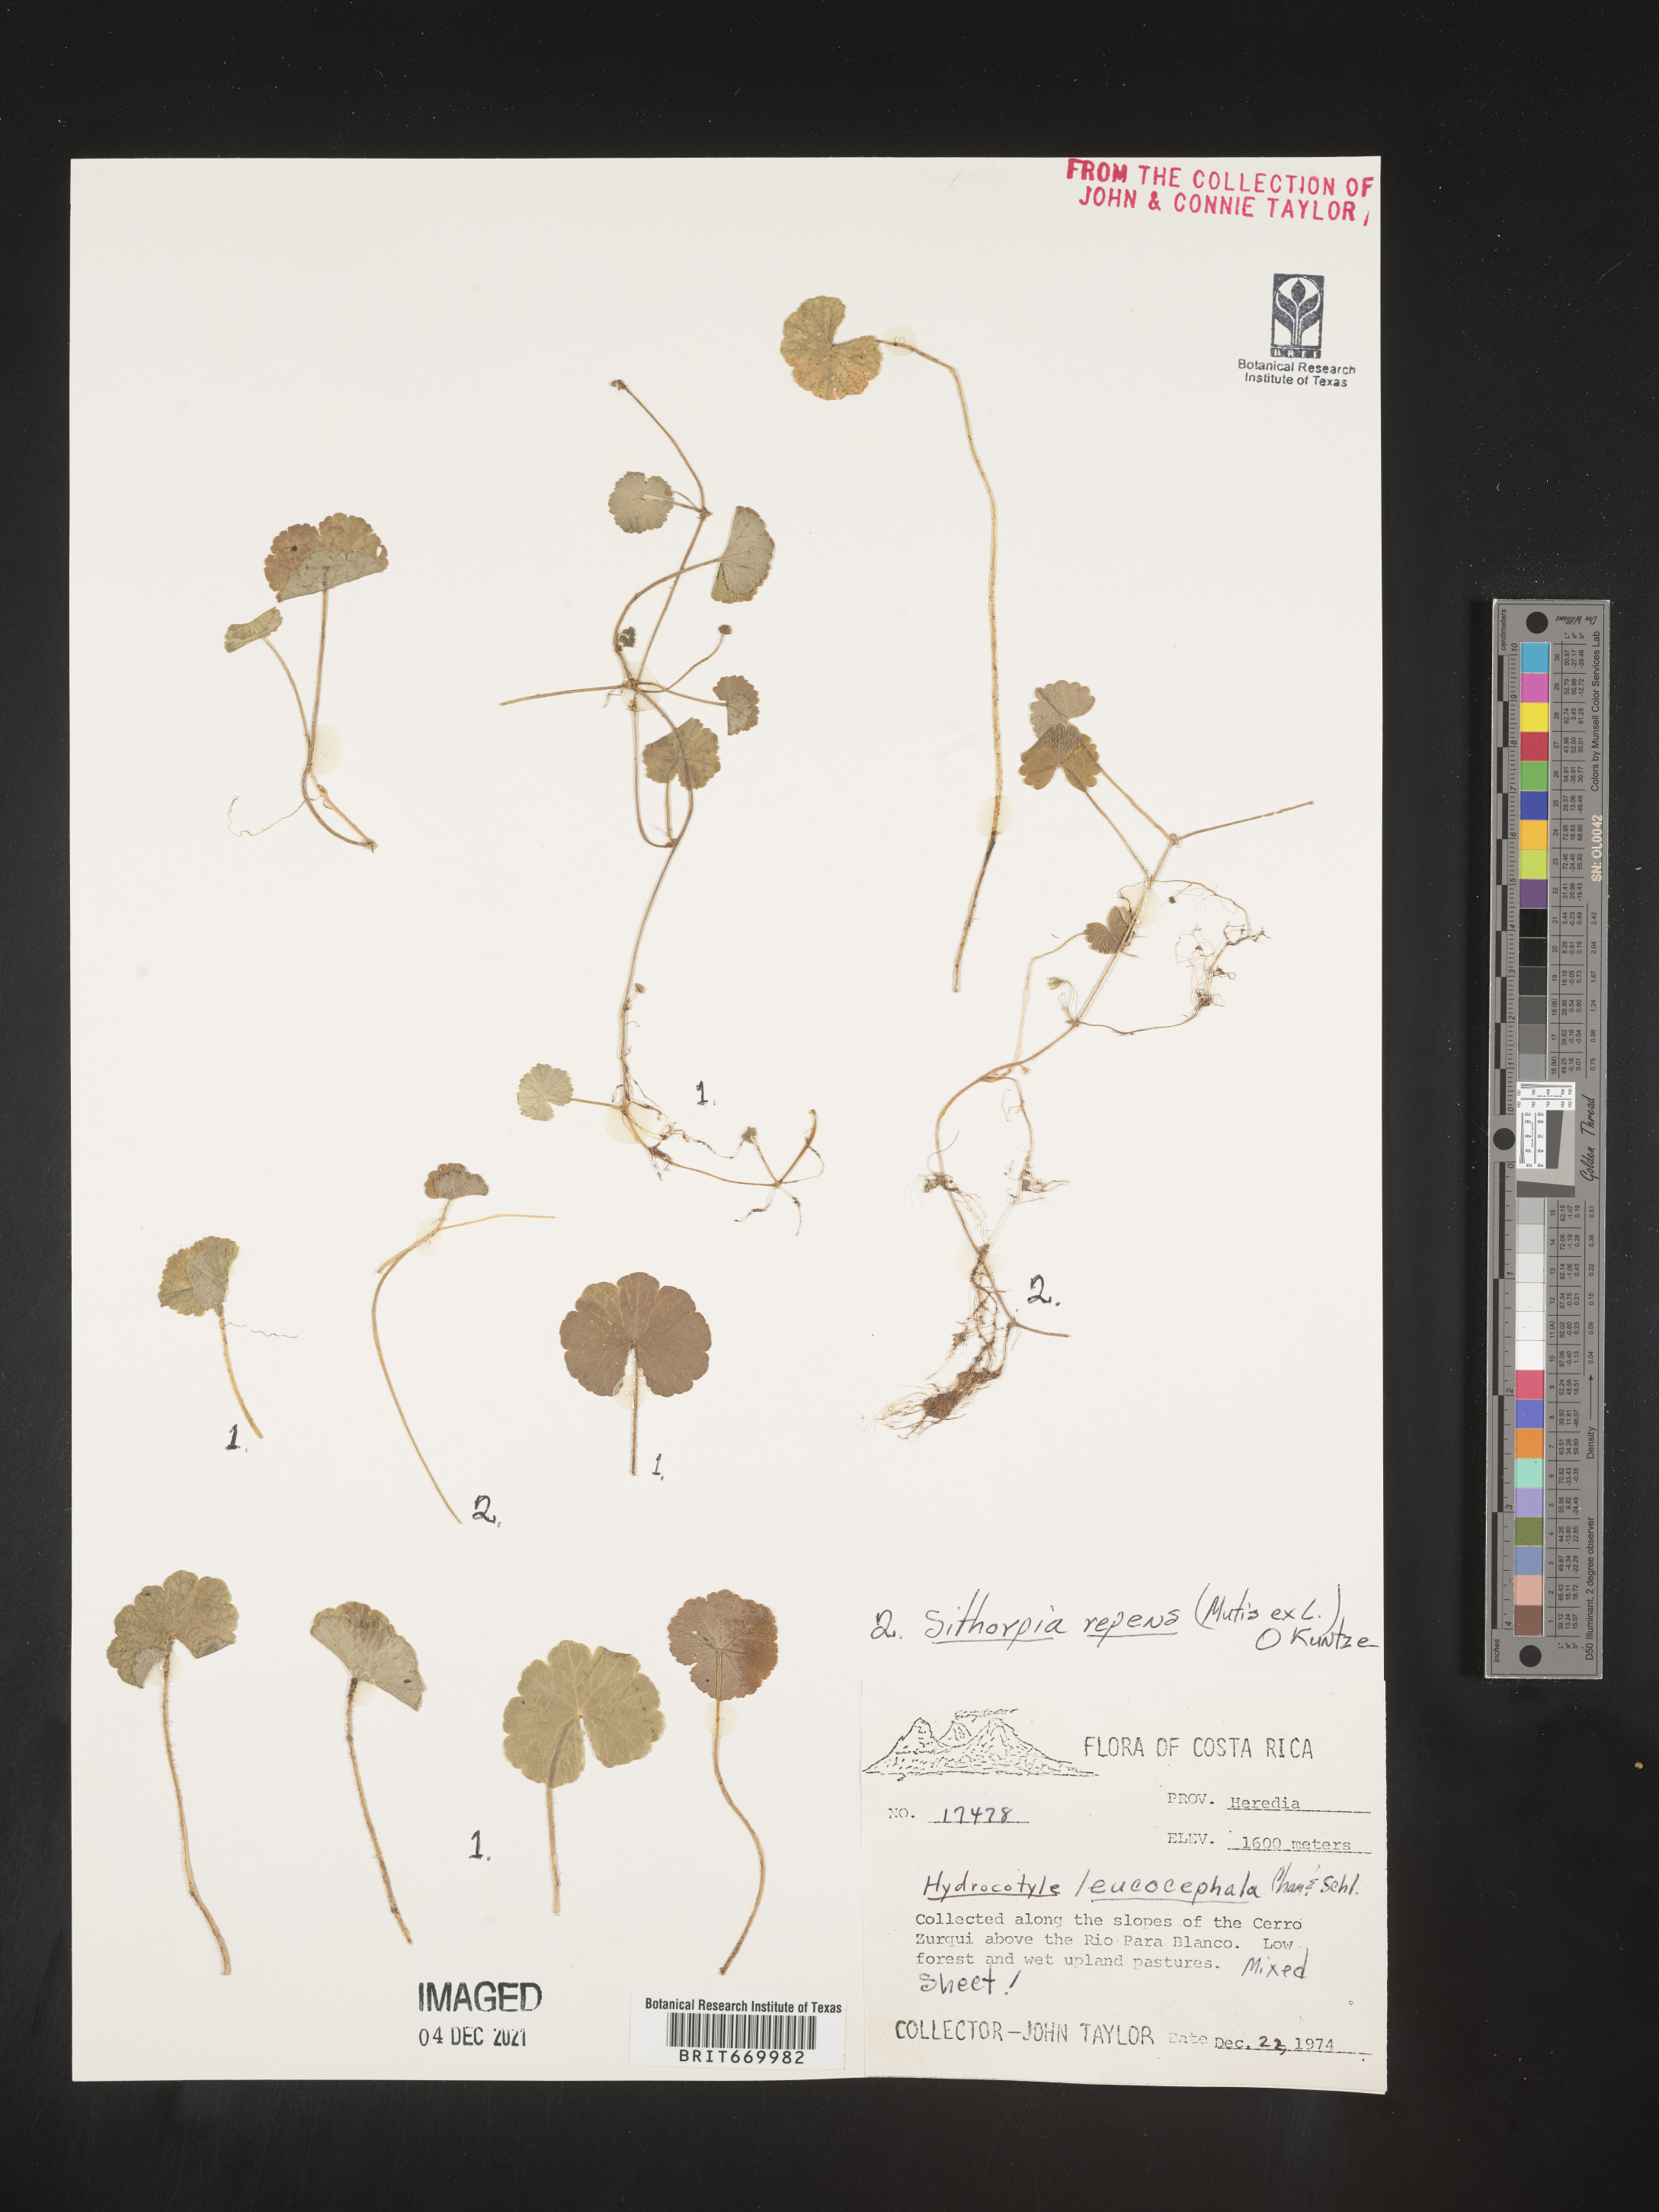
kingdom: Plantae
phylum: Tracheophyta
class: Magnoliopsida
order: Apiales
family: Araliaceae
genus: Hydrocotyle
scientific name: Hydrocotyle
